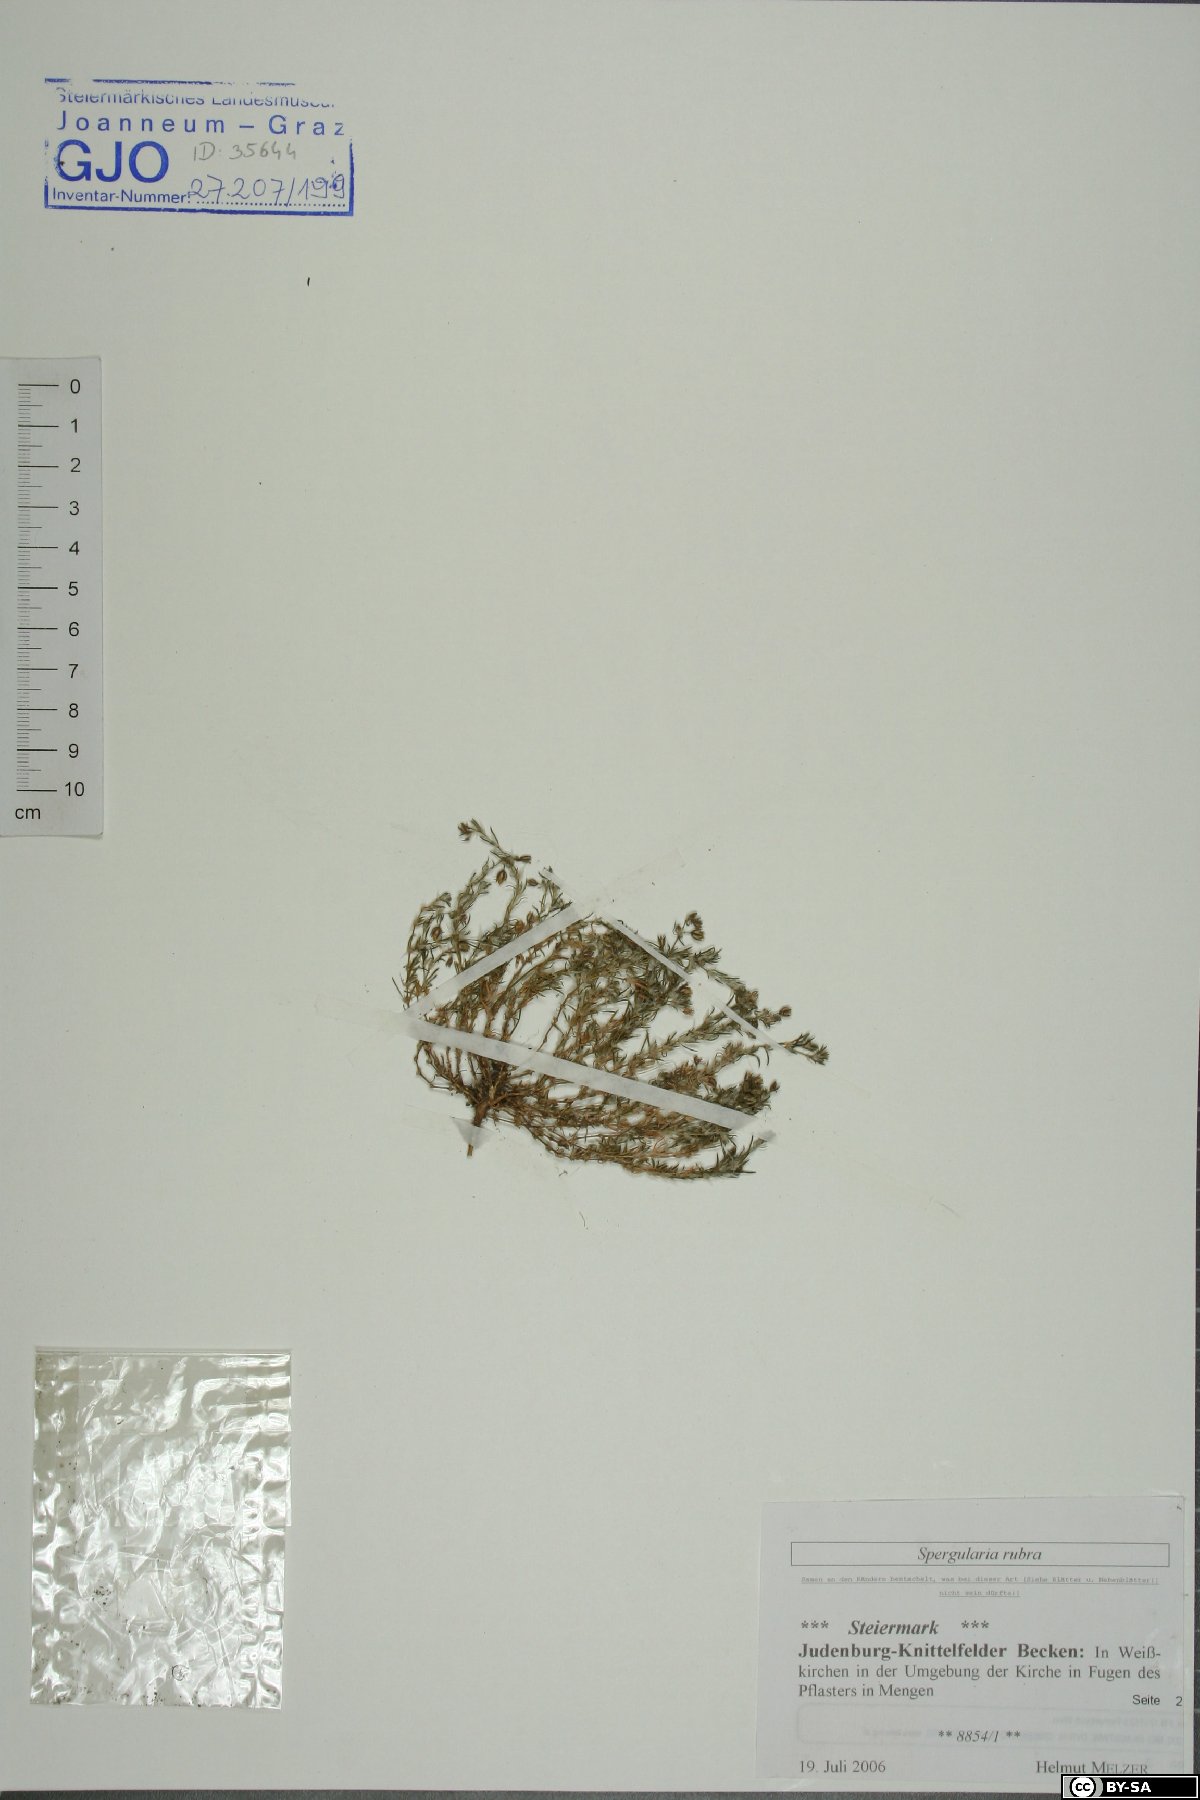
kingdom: Plantae
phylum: Tracheophyta
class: Magnoliopsida
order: Caryophyllales
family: Caryophyllaceae
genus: Spergularia
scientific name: Spergularia rubra
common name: Red sand-spurrey
